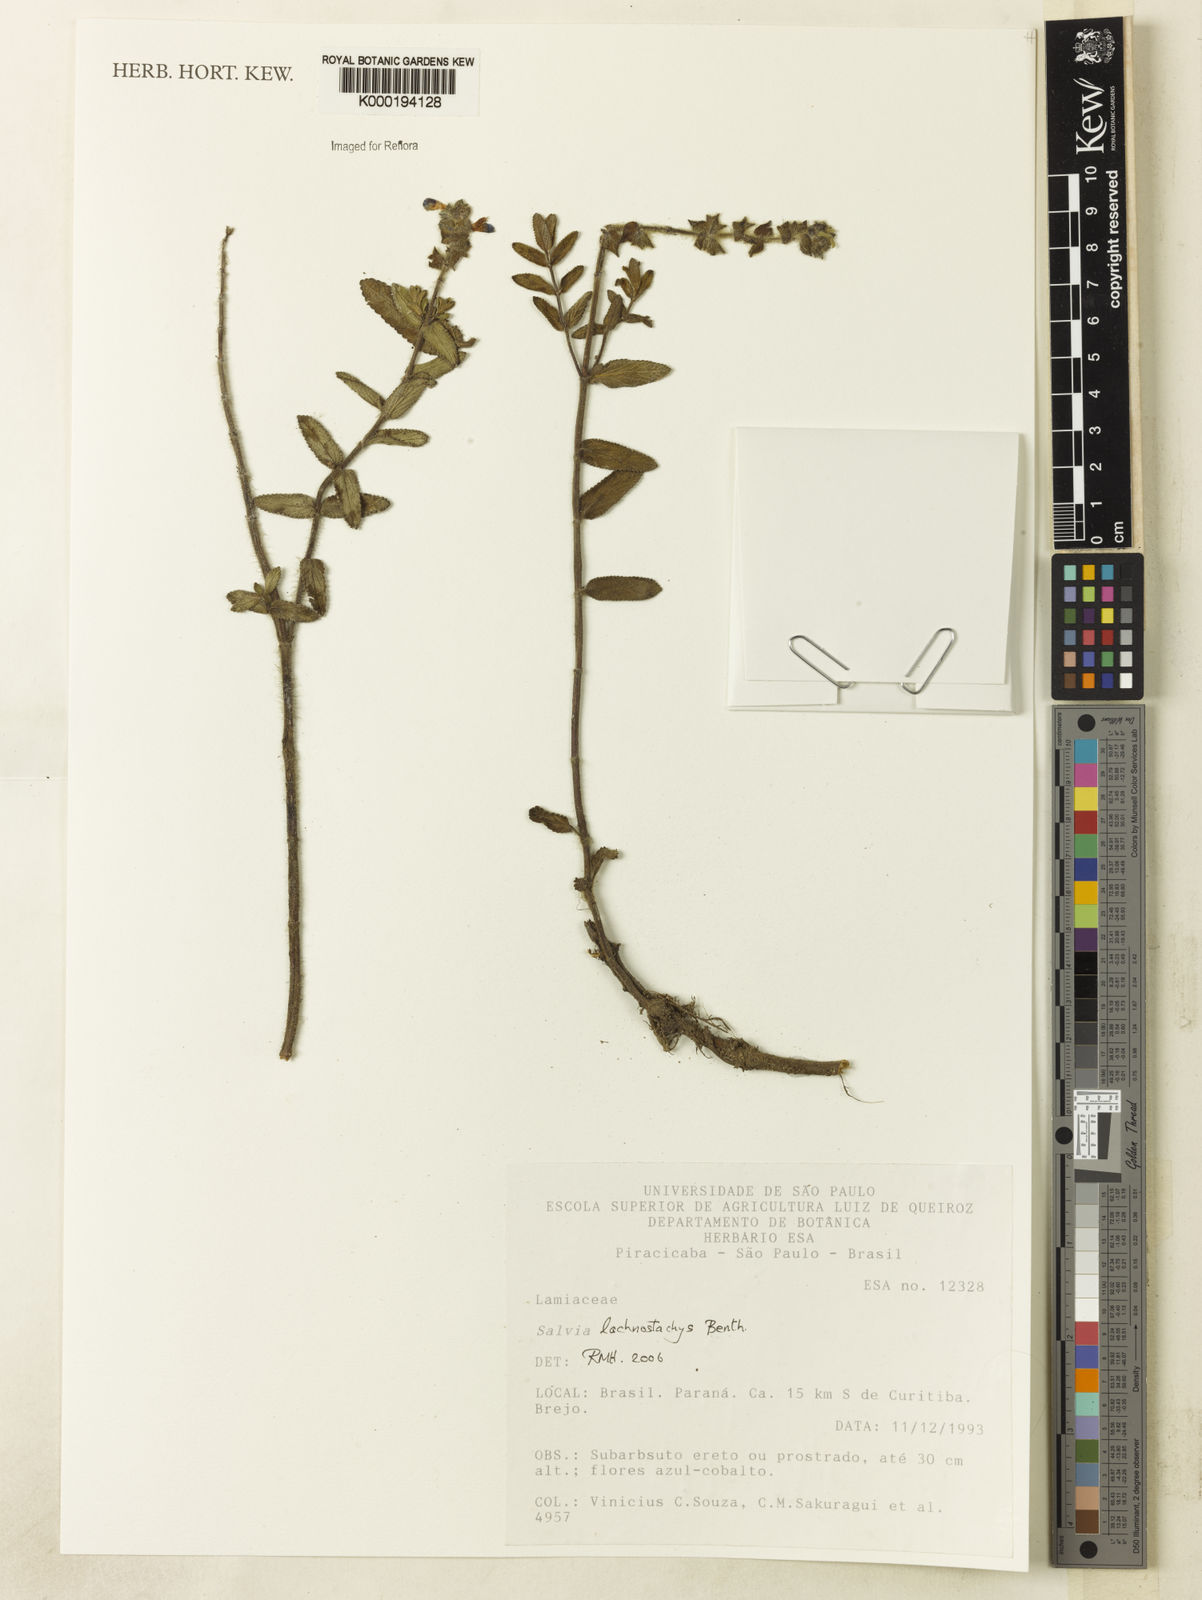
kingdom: Plantae
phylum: Tracheophyta
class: Magnoliopsida
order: Lamiales
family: Lamiaceae
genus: Salvia
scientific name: Salvia lachnostachys
